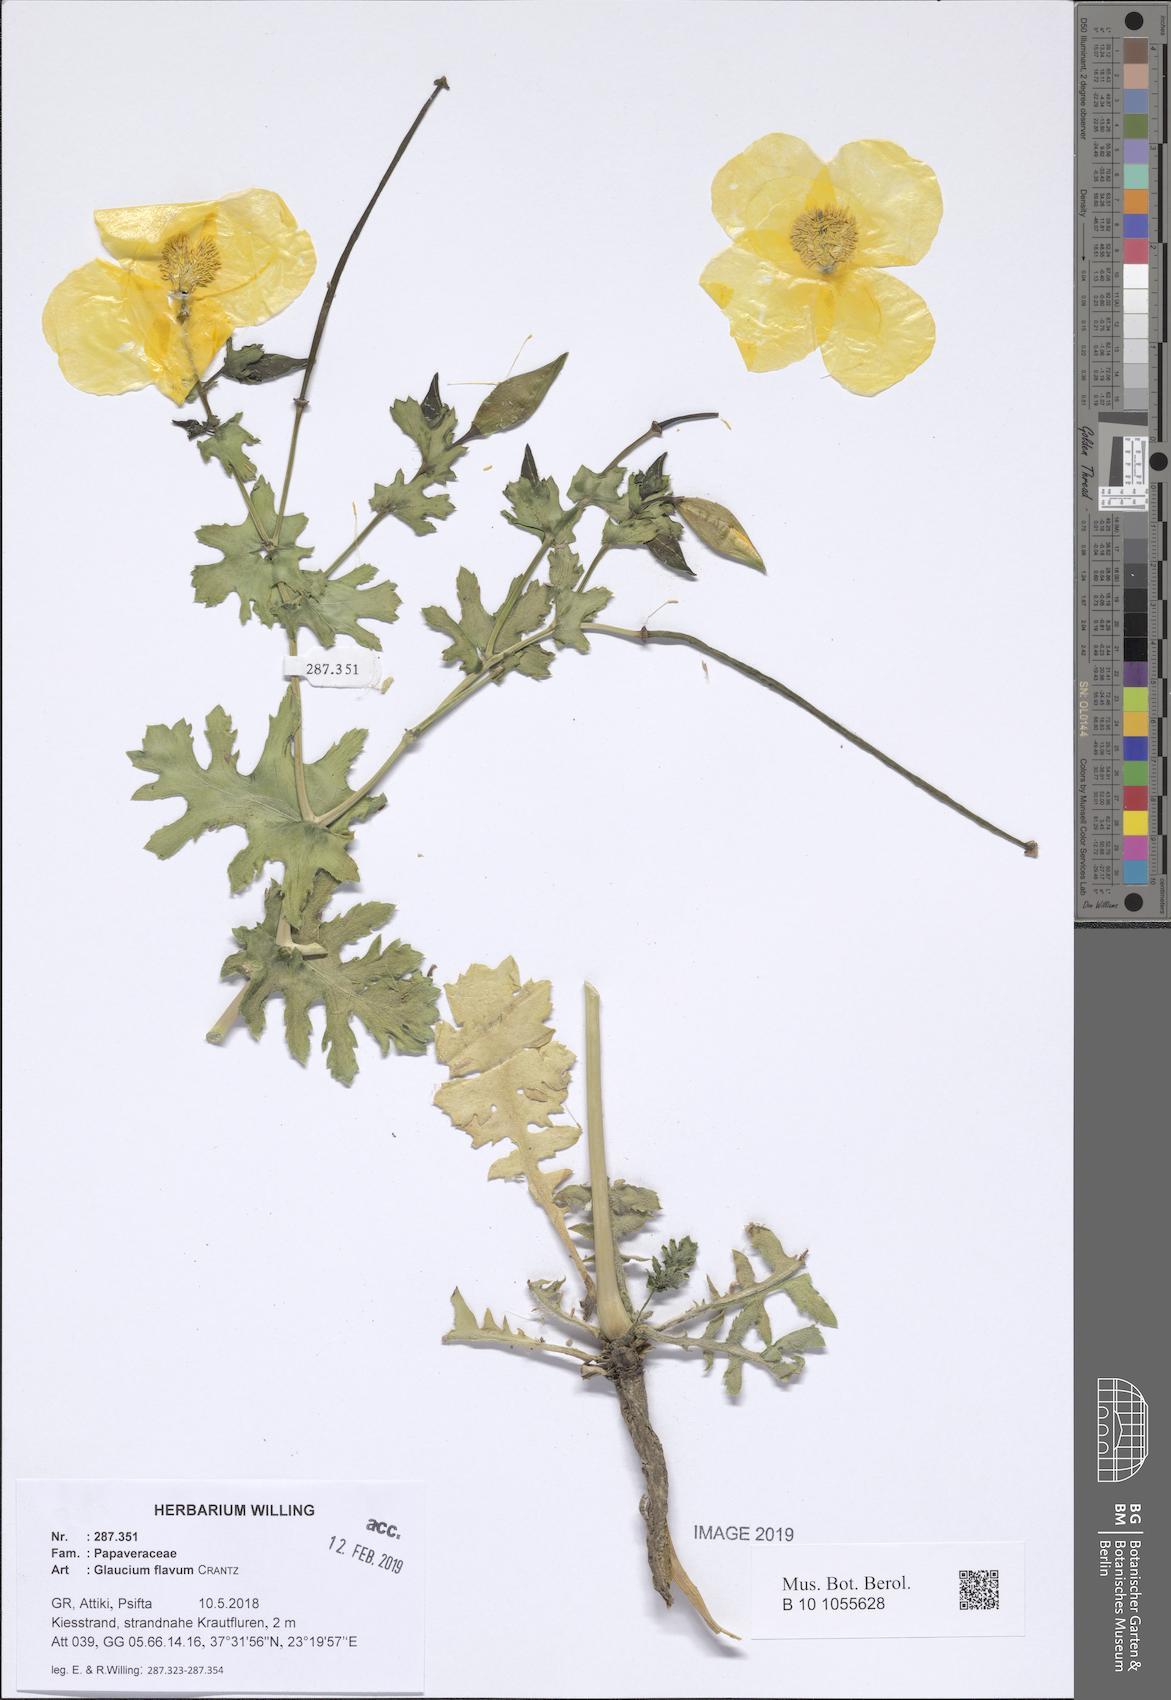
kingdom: Plantae
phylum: Tracheophyta
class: Magnoliopsida
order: Ranunculales
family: Papaveraceae
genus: Glaucium
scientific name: Glaucium flavum
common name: Yellow horned-poppy
